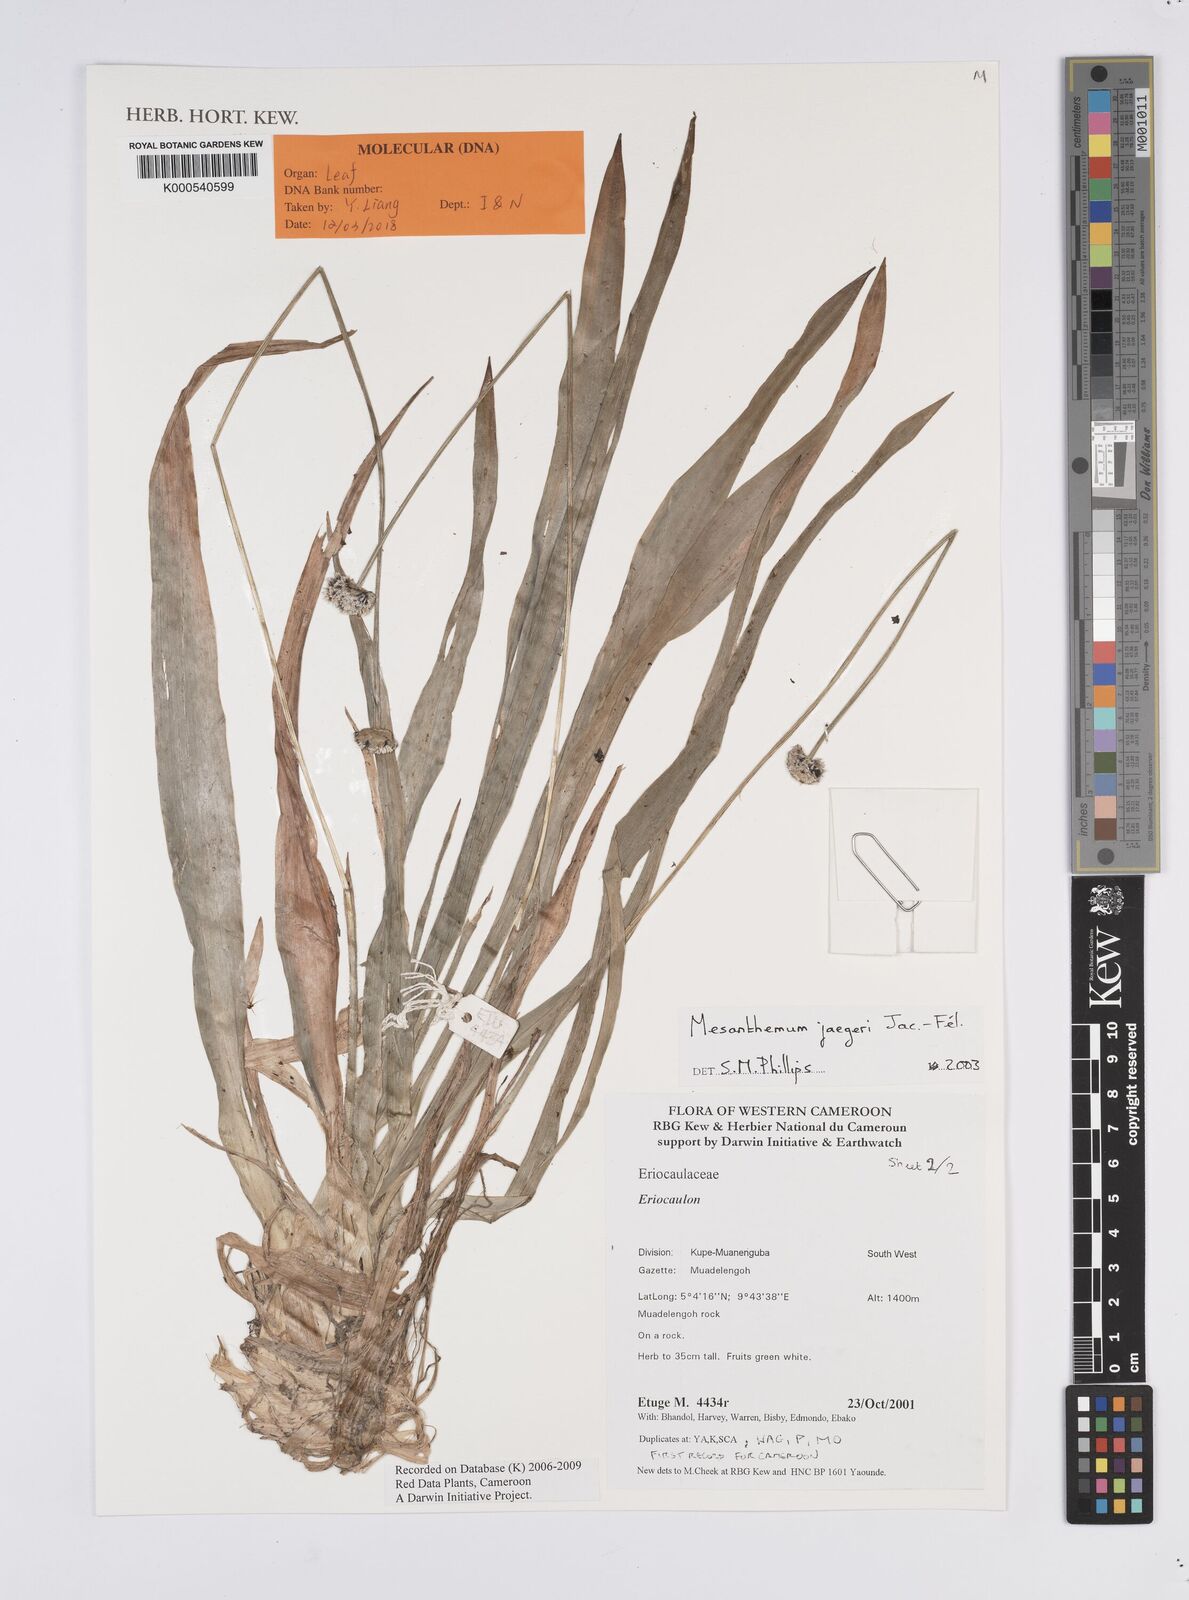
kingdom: Plantae
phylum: Tracheophyta
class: Liliopsida
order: Poales
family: Eriocaulaceae
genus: Mesanthemum
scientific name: Mesanthemum
